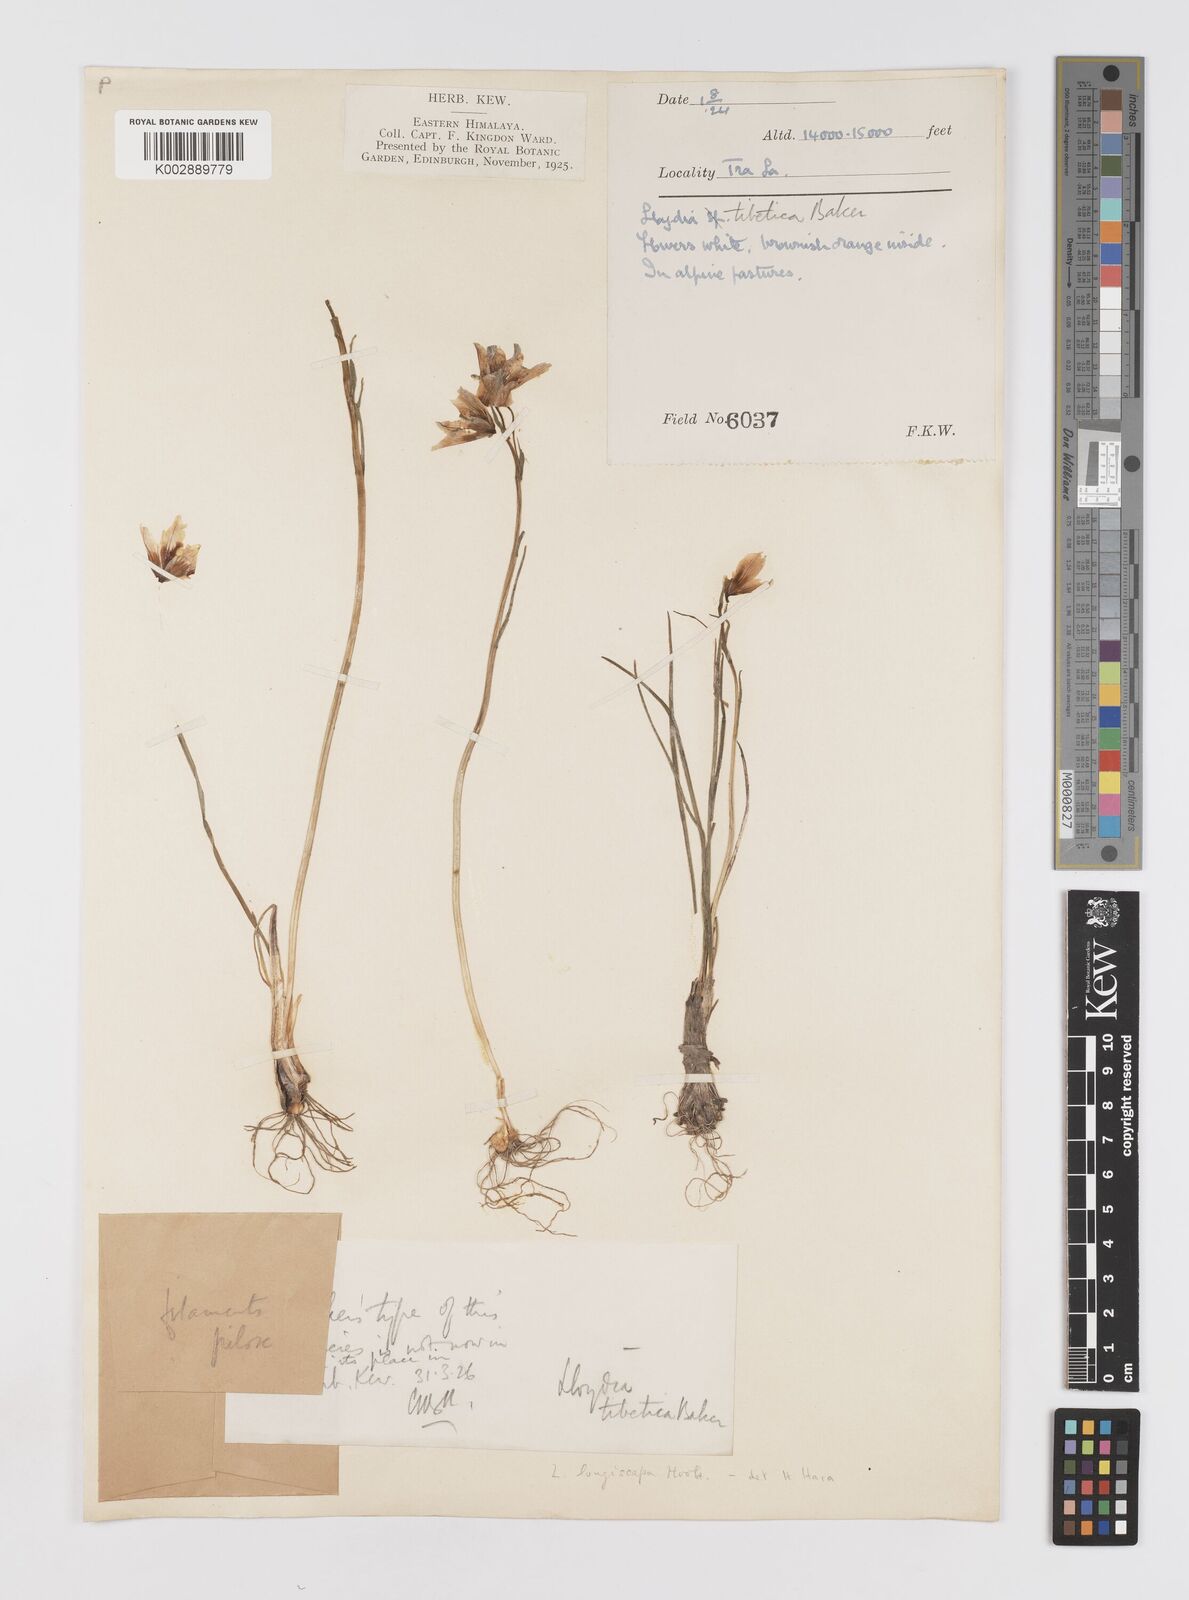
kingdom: Plantae
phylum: Tracheophyta
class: Liliopsida
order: Liliales
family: Liliaceae
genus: Gagea
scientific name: Gagea longiscapa
